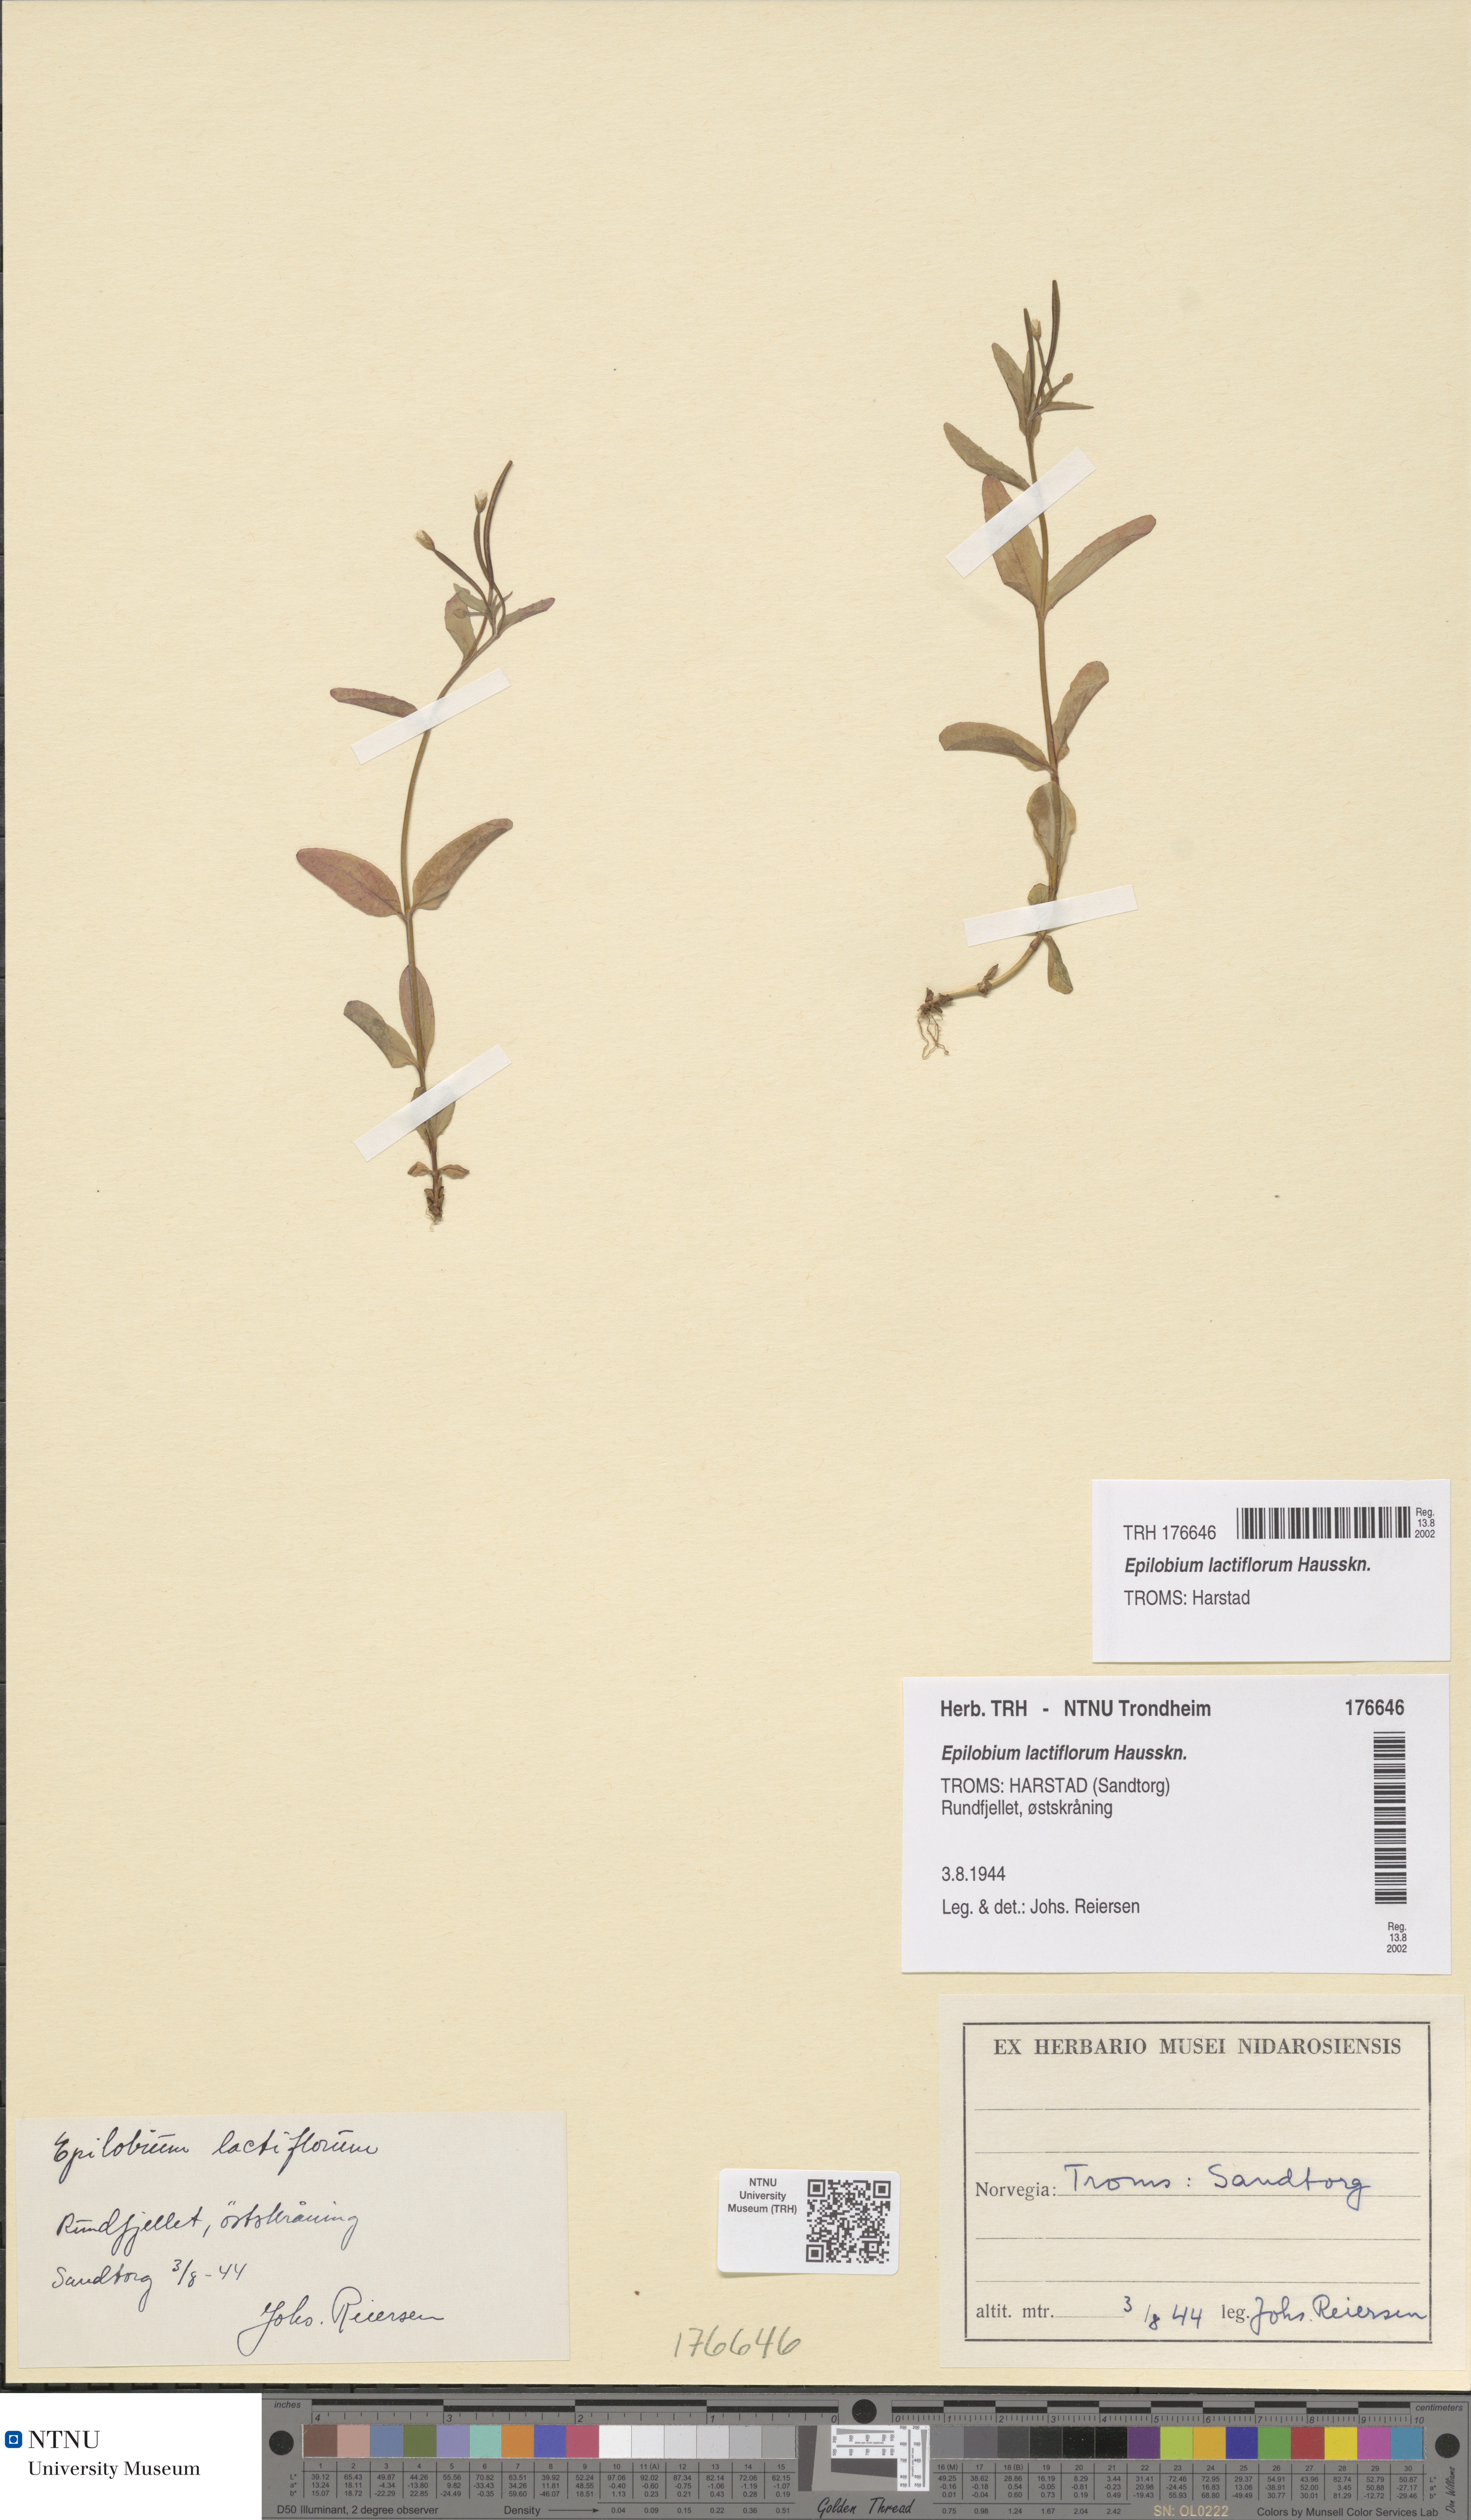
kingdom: Plantae
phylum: Tracheophyta
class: Magnoliopsida
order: Myrtales
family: Onagraceae
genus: Epilobium
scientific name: Epilobium lactiflorum
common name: Milkflower willowherb
